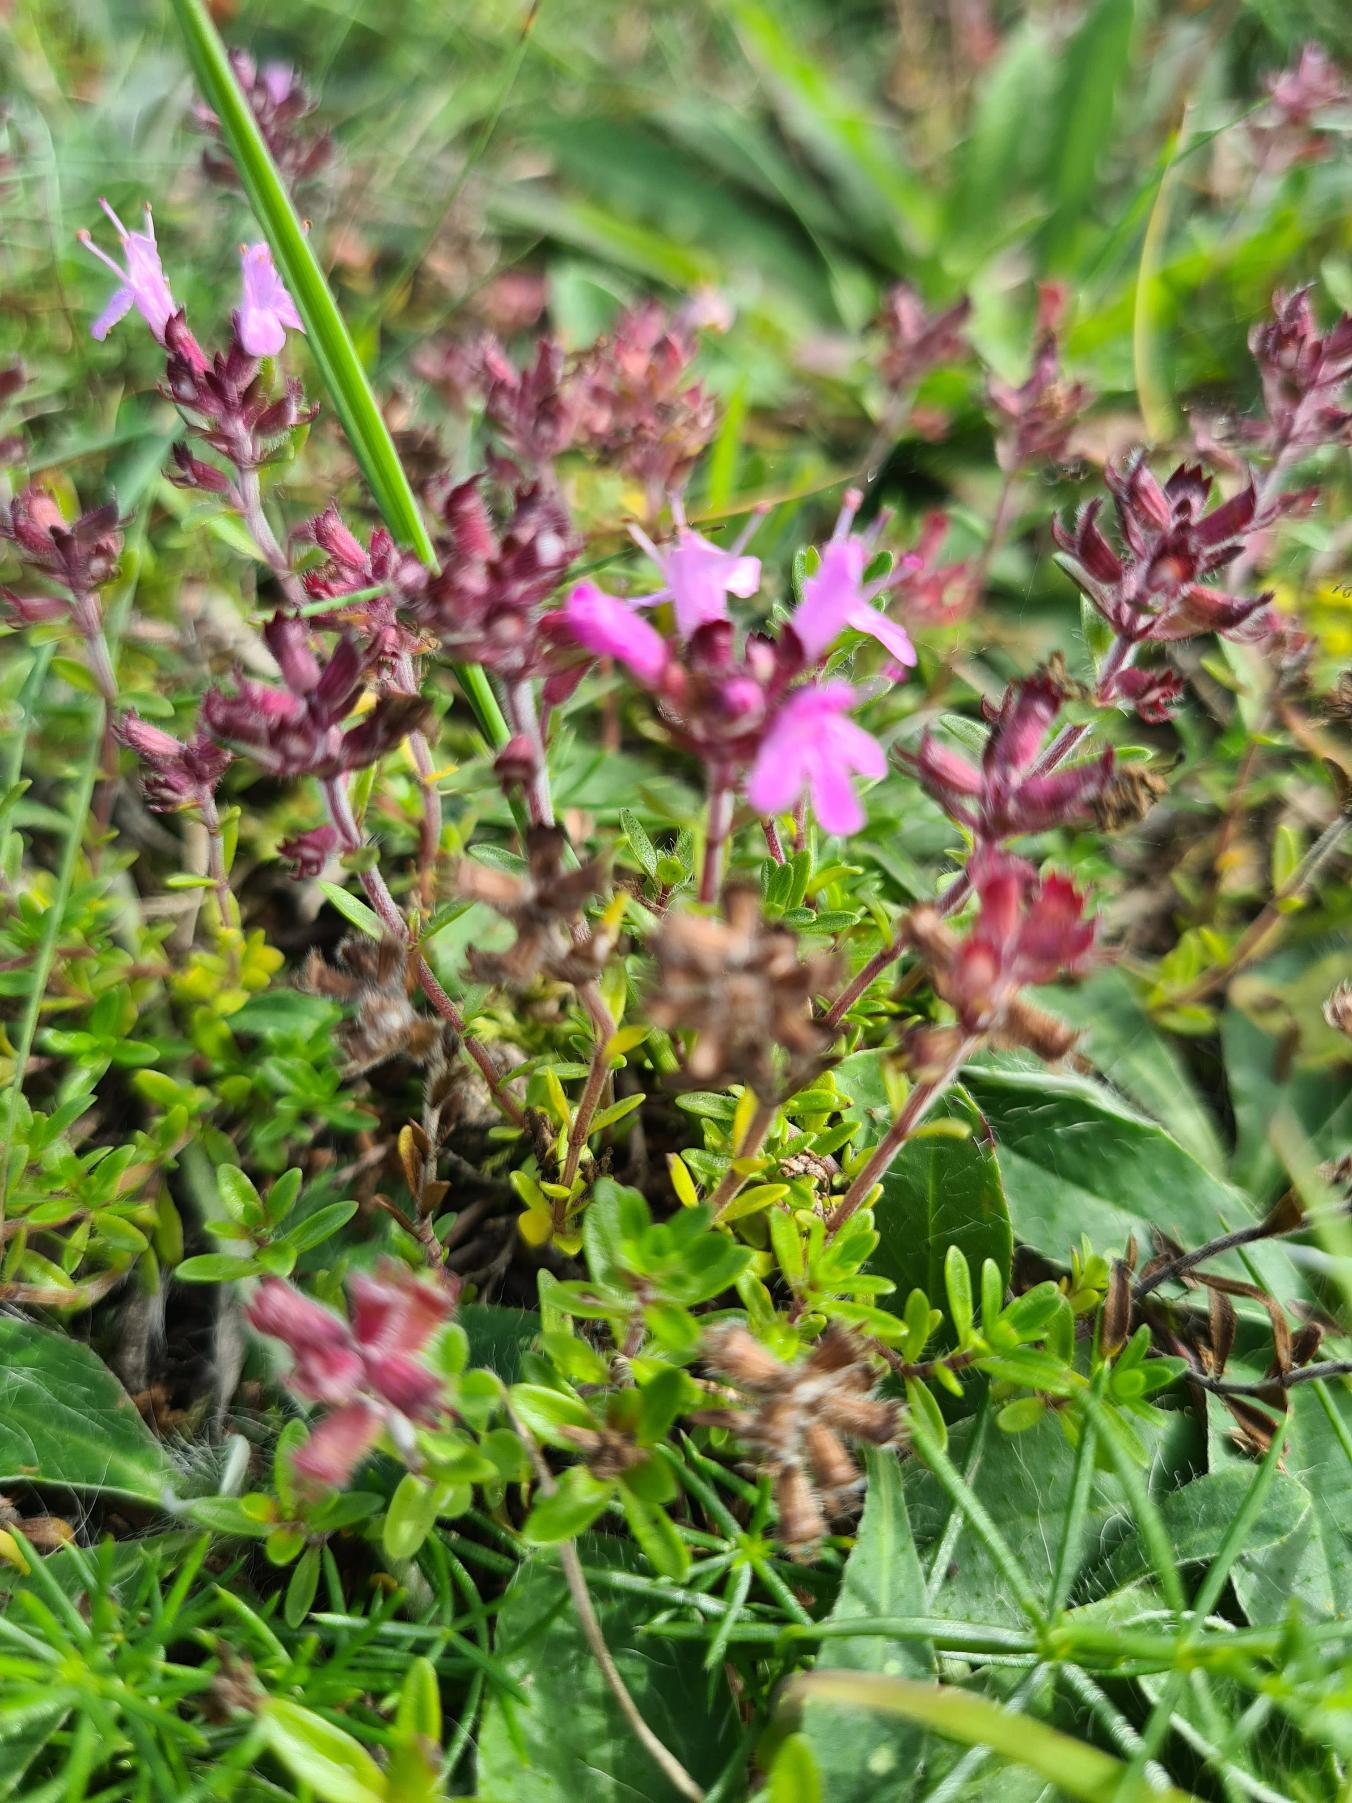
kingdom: Plantae
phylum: Tracheophyta
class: Magnoliopsida
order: Lamiales
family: Lamiaceae
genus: Thymus
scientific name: Thymus serpyllum
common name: Smalbladet timian
